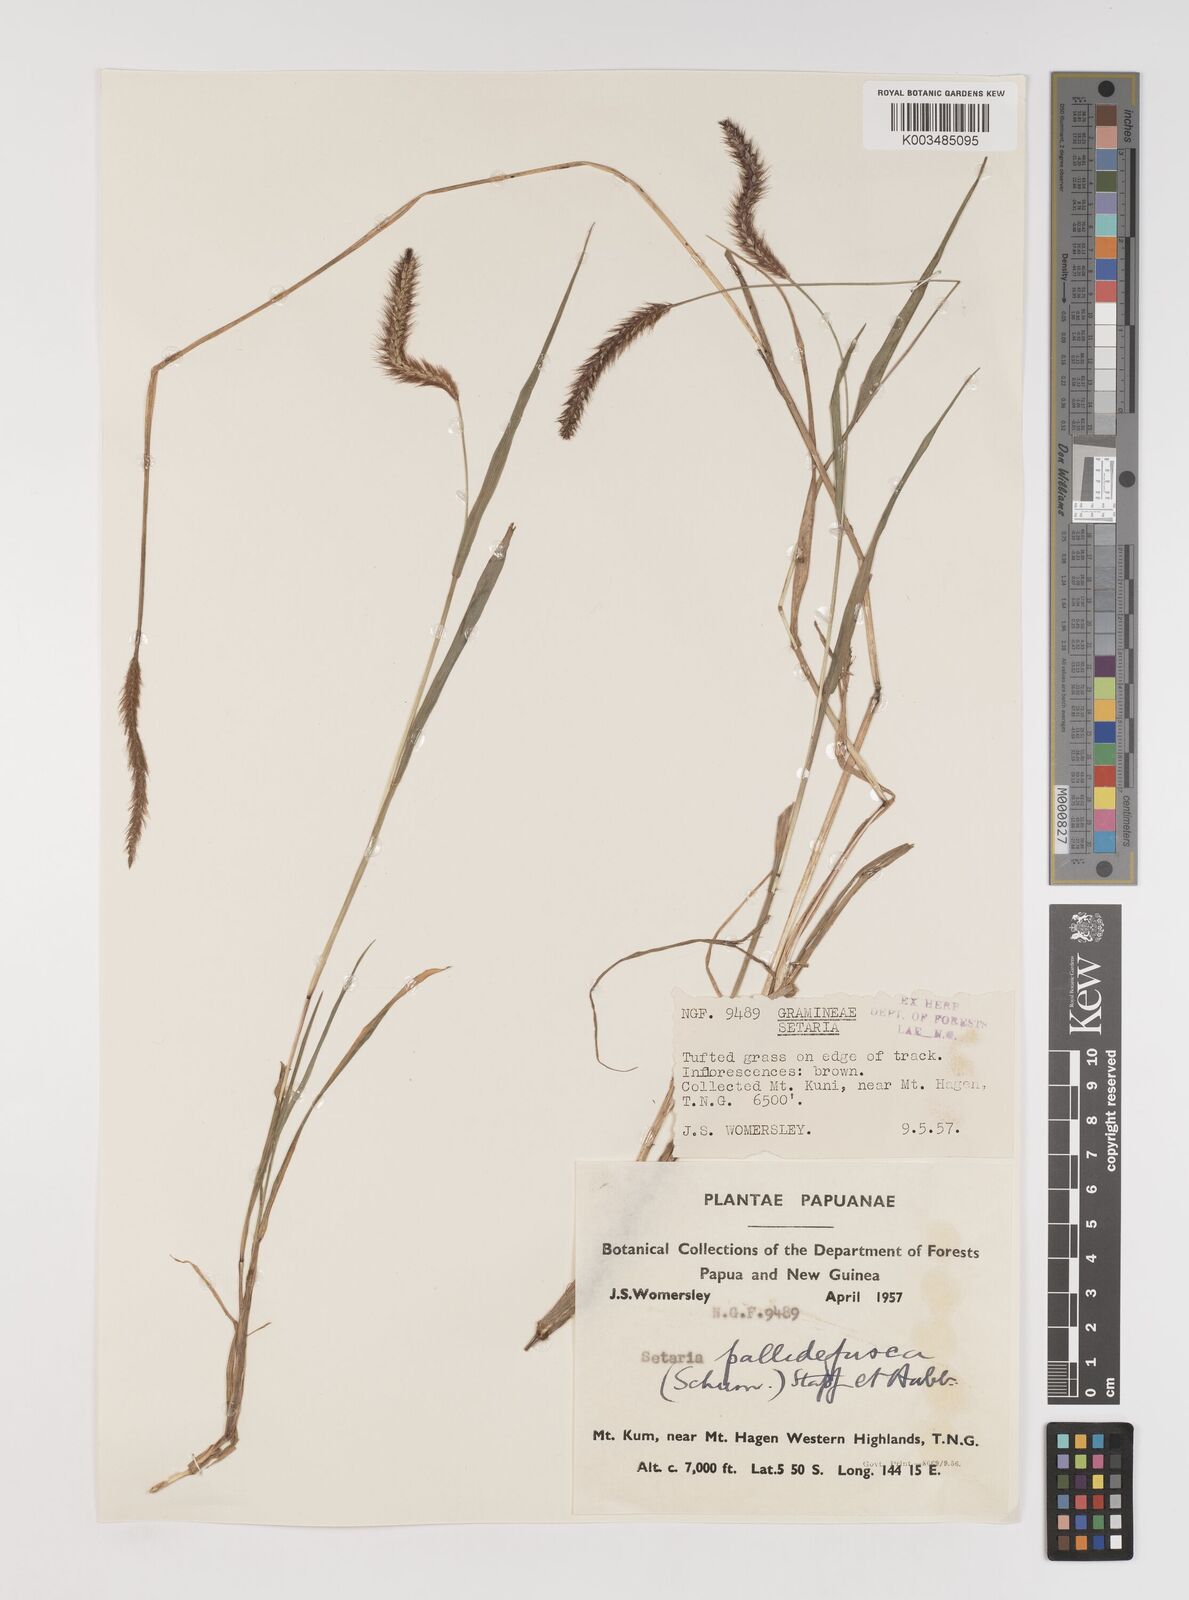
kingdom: Plantae
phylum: Tracheophyta
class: Liliopsida
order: Poales
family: Poaceae
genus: Setaria
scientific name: Setaria pumila
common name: Yellow bristle-grass
